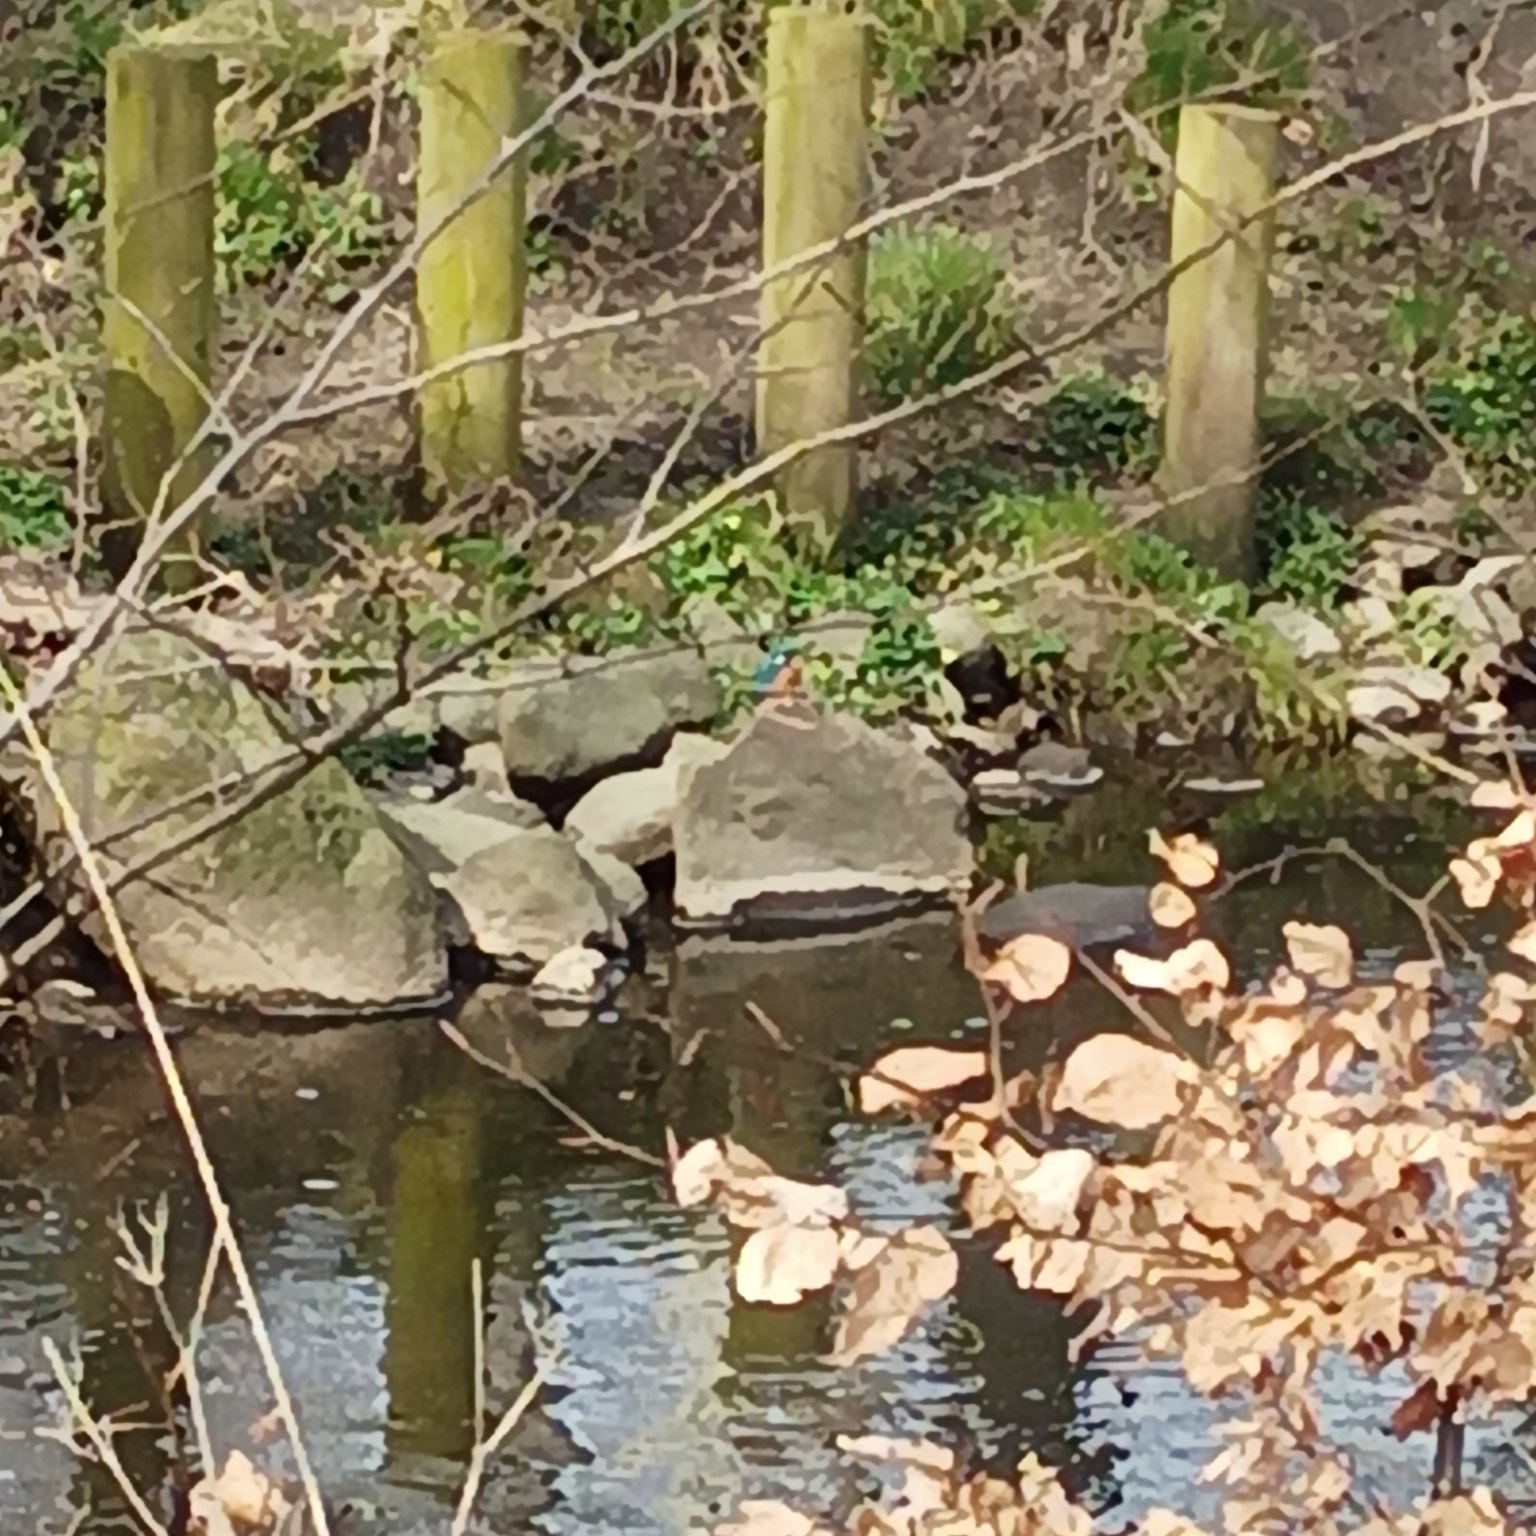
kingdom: Animalia
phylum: Chordata
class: Aves
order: Coraciiformes
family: Alcedinidae
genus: Alcedo
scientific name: Alcedo atthis
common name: Isfugl
